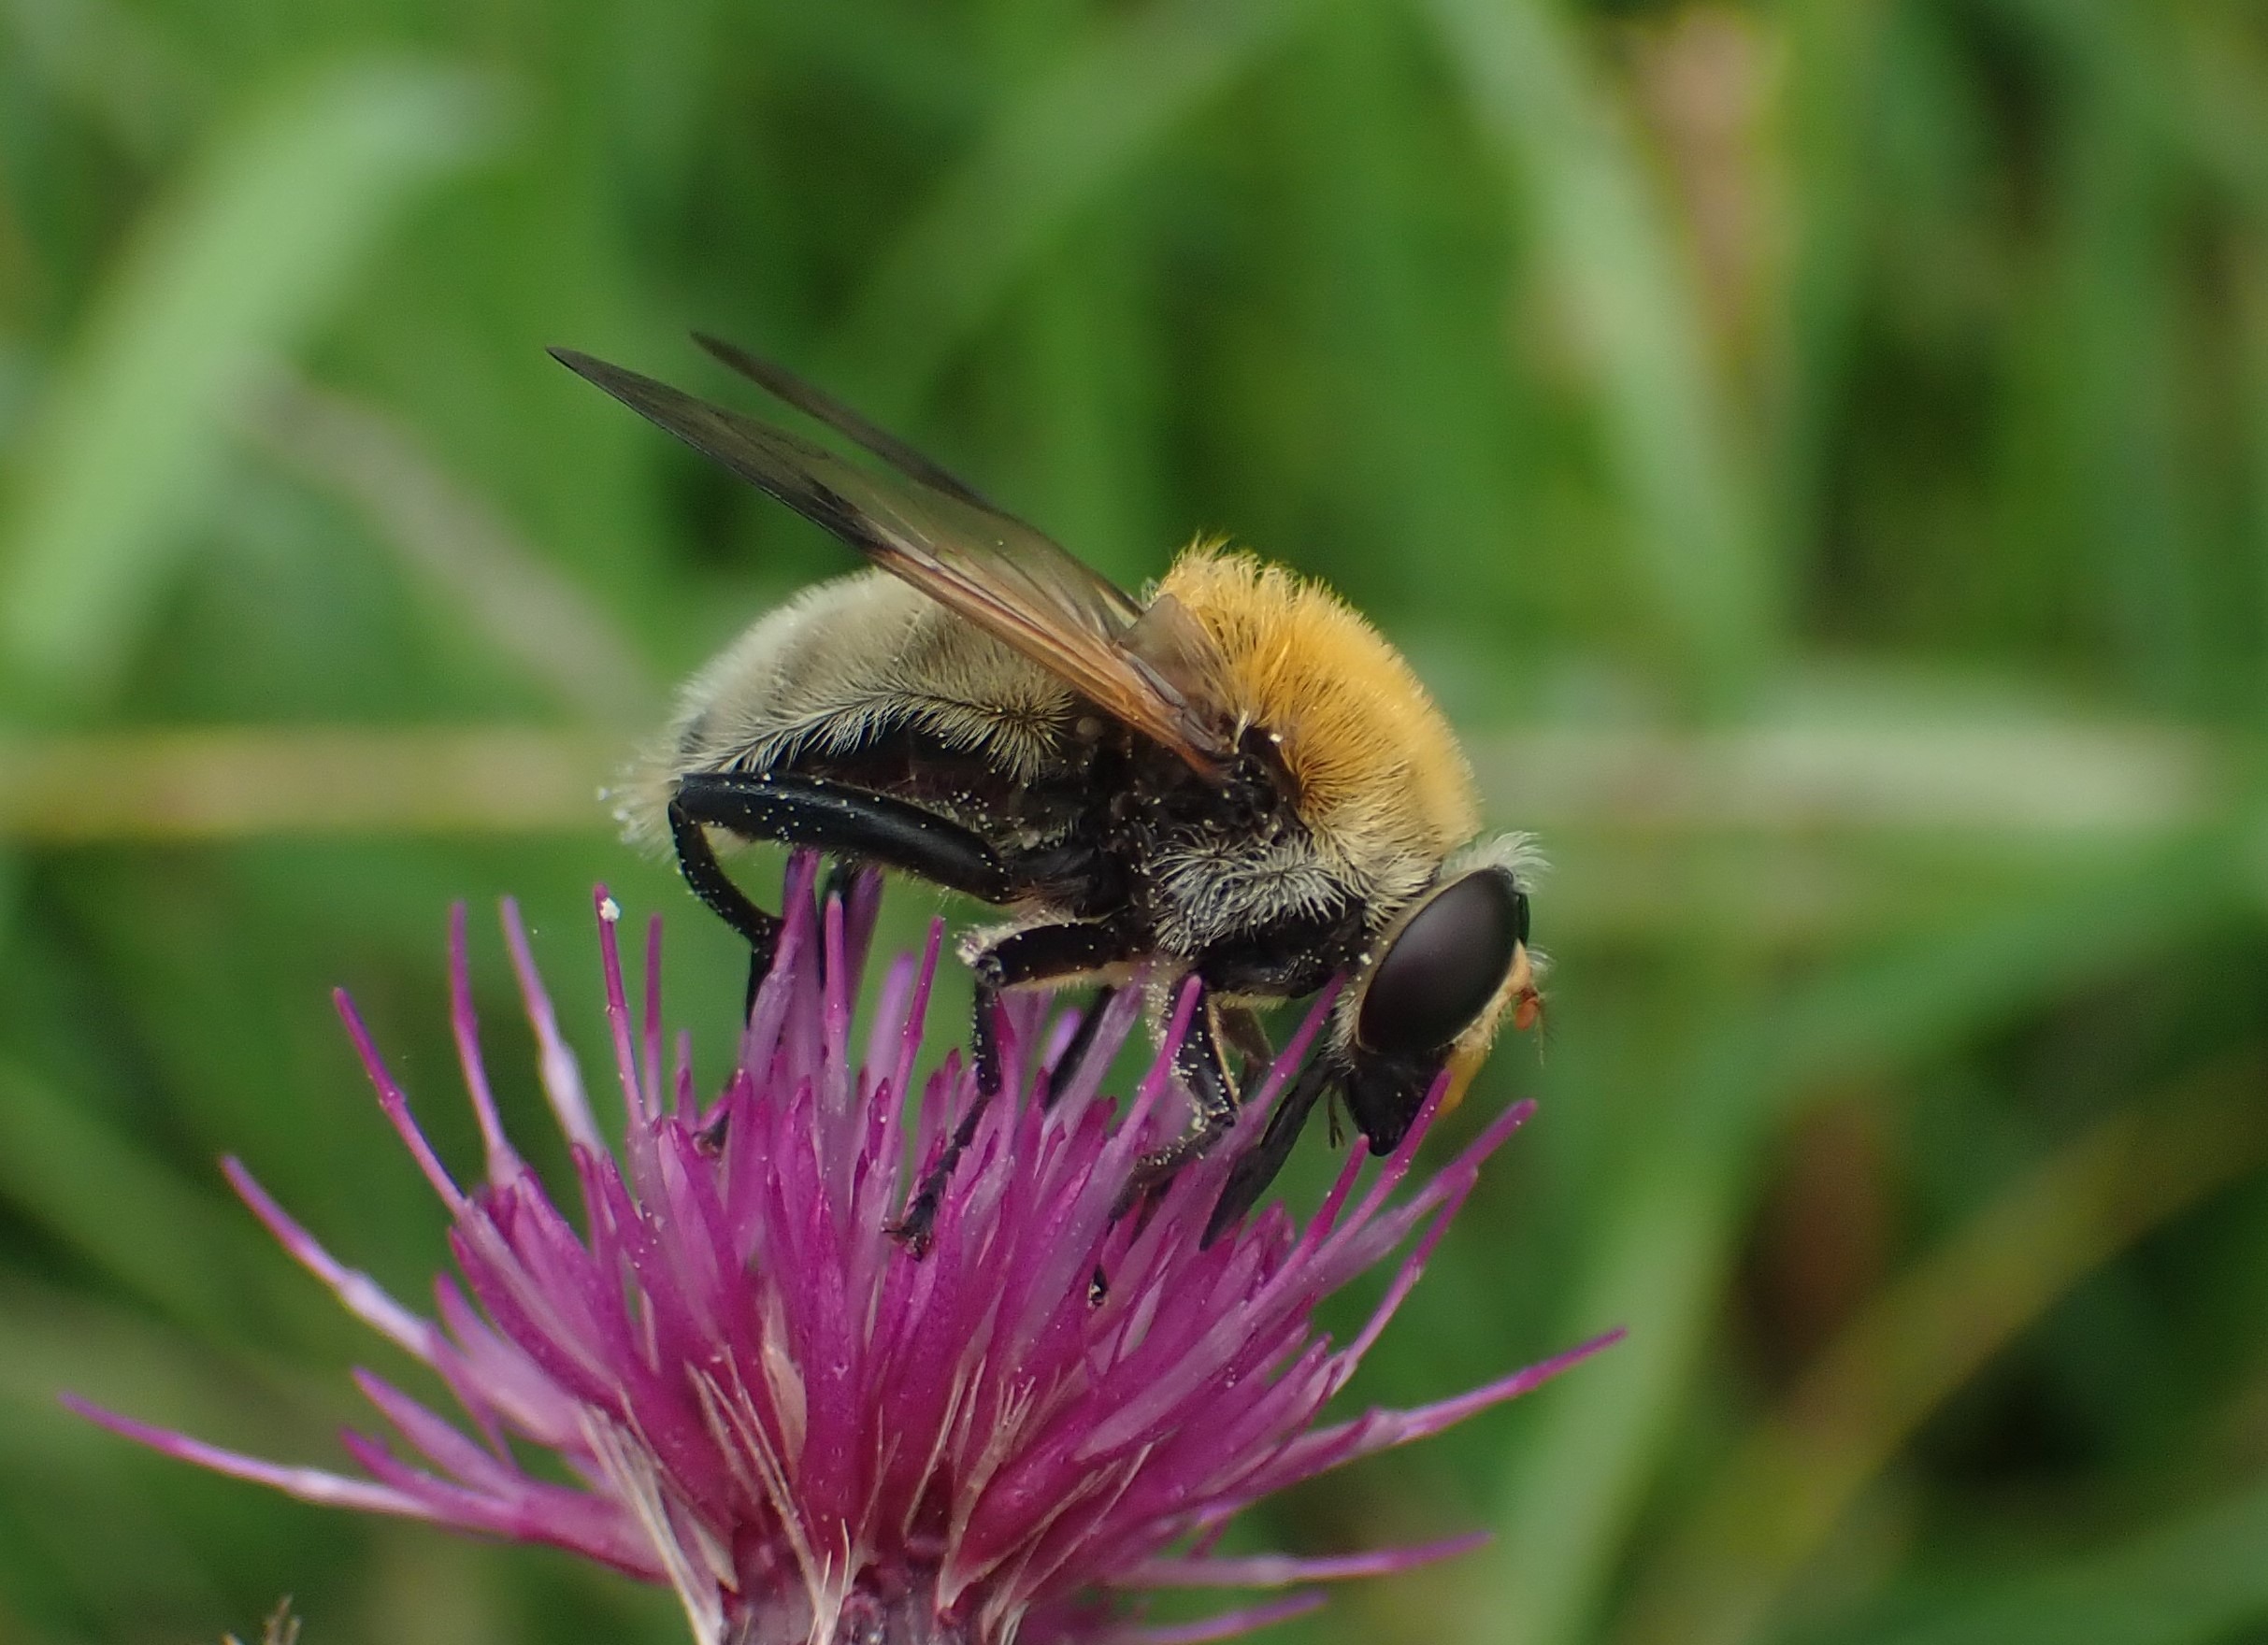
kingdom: Animalia
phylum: Arthropoda
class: Insecta
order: Diptera
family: Syrphidae
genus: Sericomyia
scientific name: Sericomyia superbiens
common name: Brun bjørnesvirreflue
